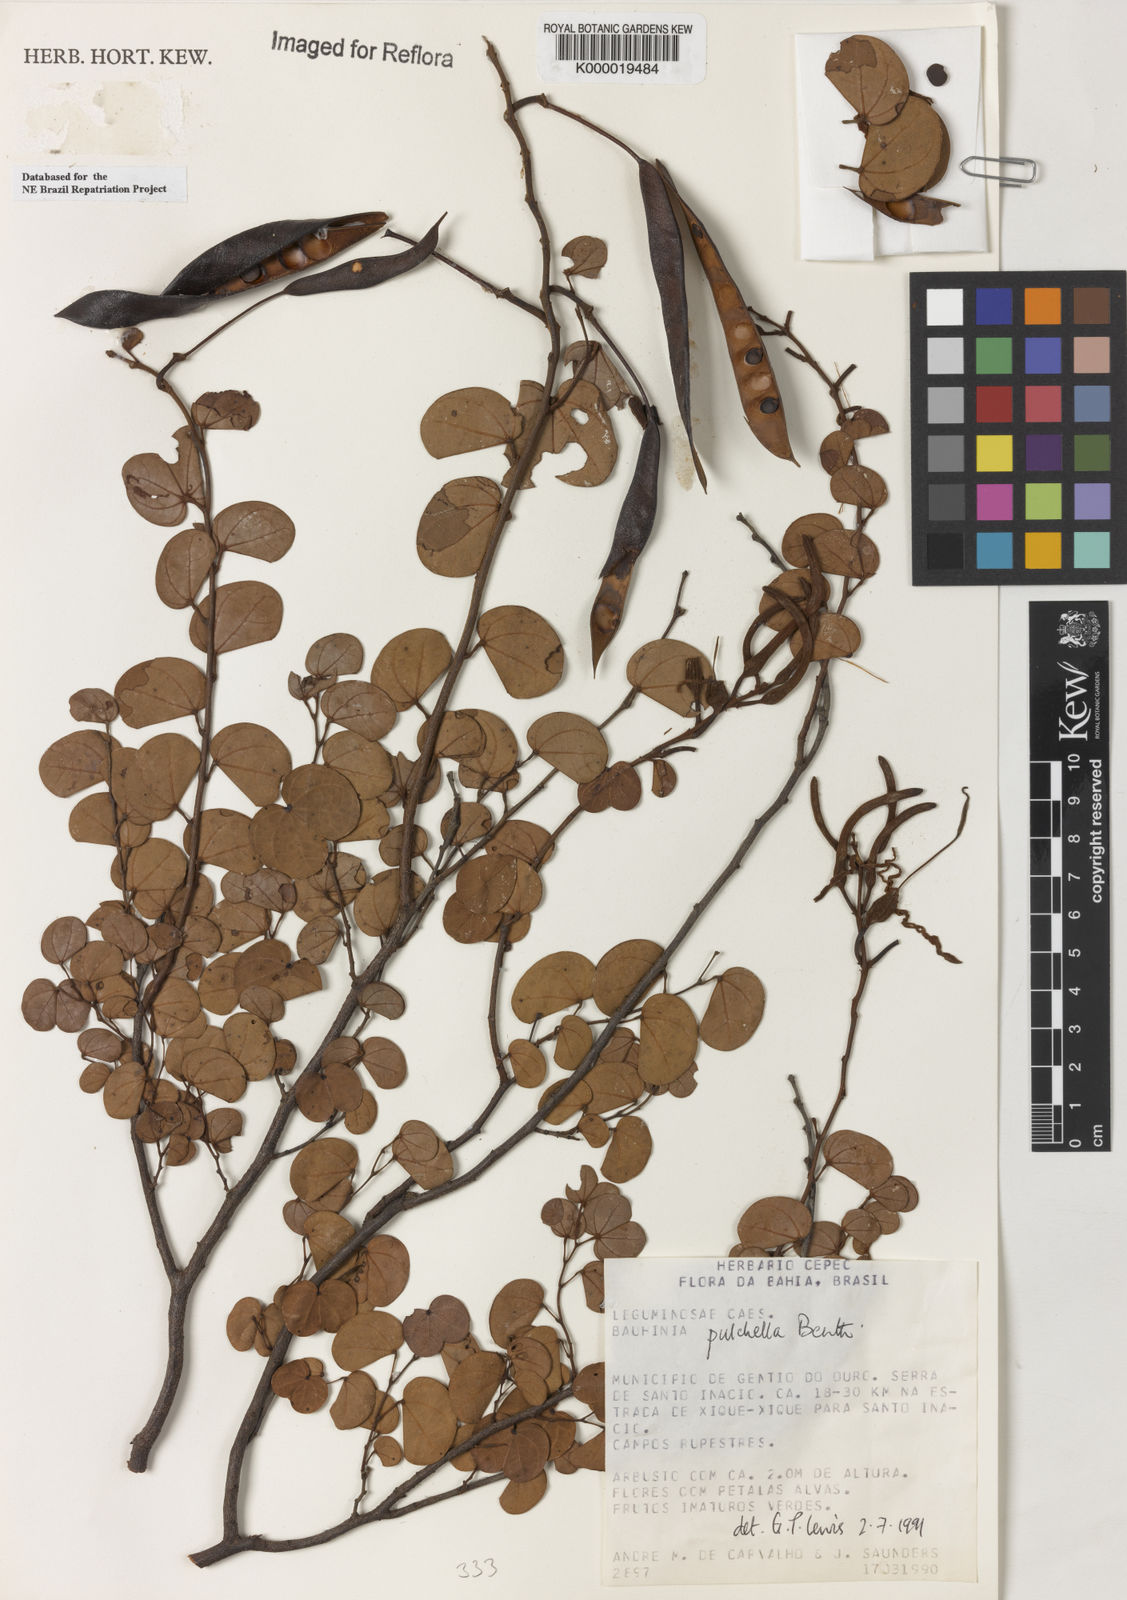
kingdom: Plantae
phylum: Tracheophyta
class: Magnoliopsida
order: Fabales
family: Fabaceae
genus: Bauhinia
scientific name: Bauhinia pulchella
